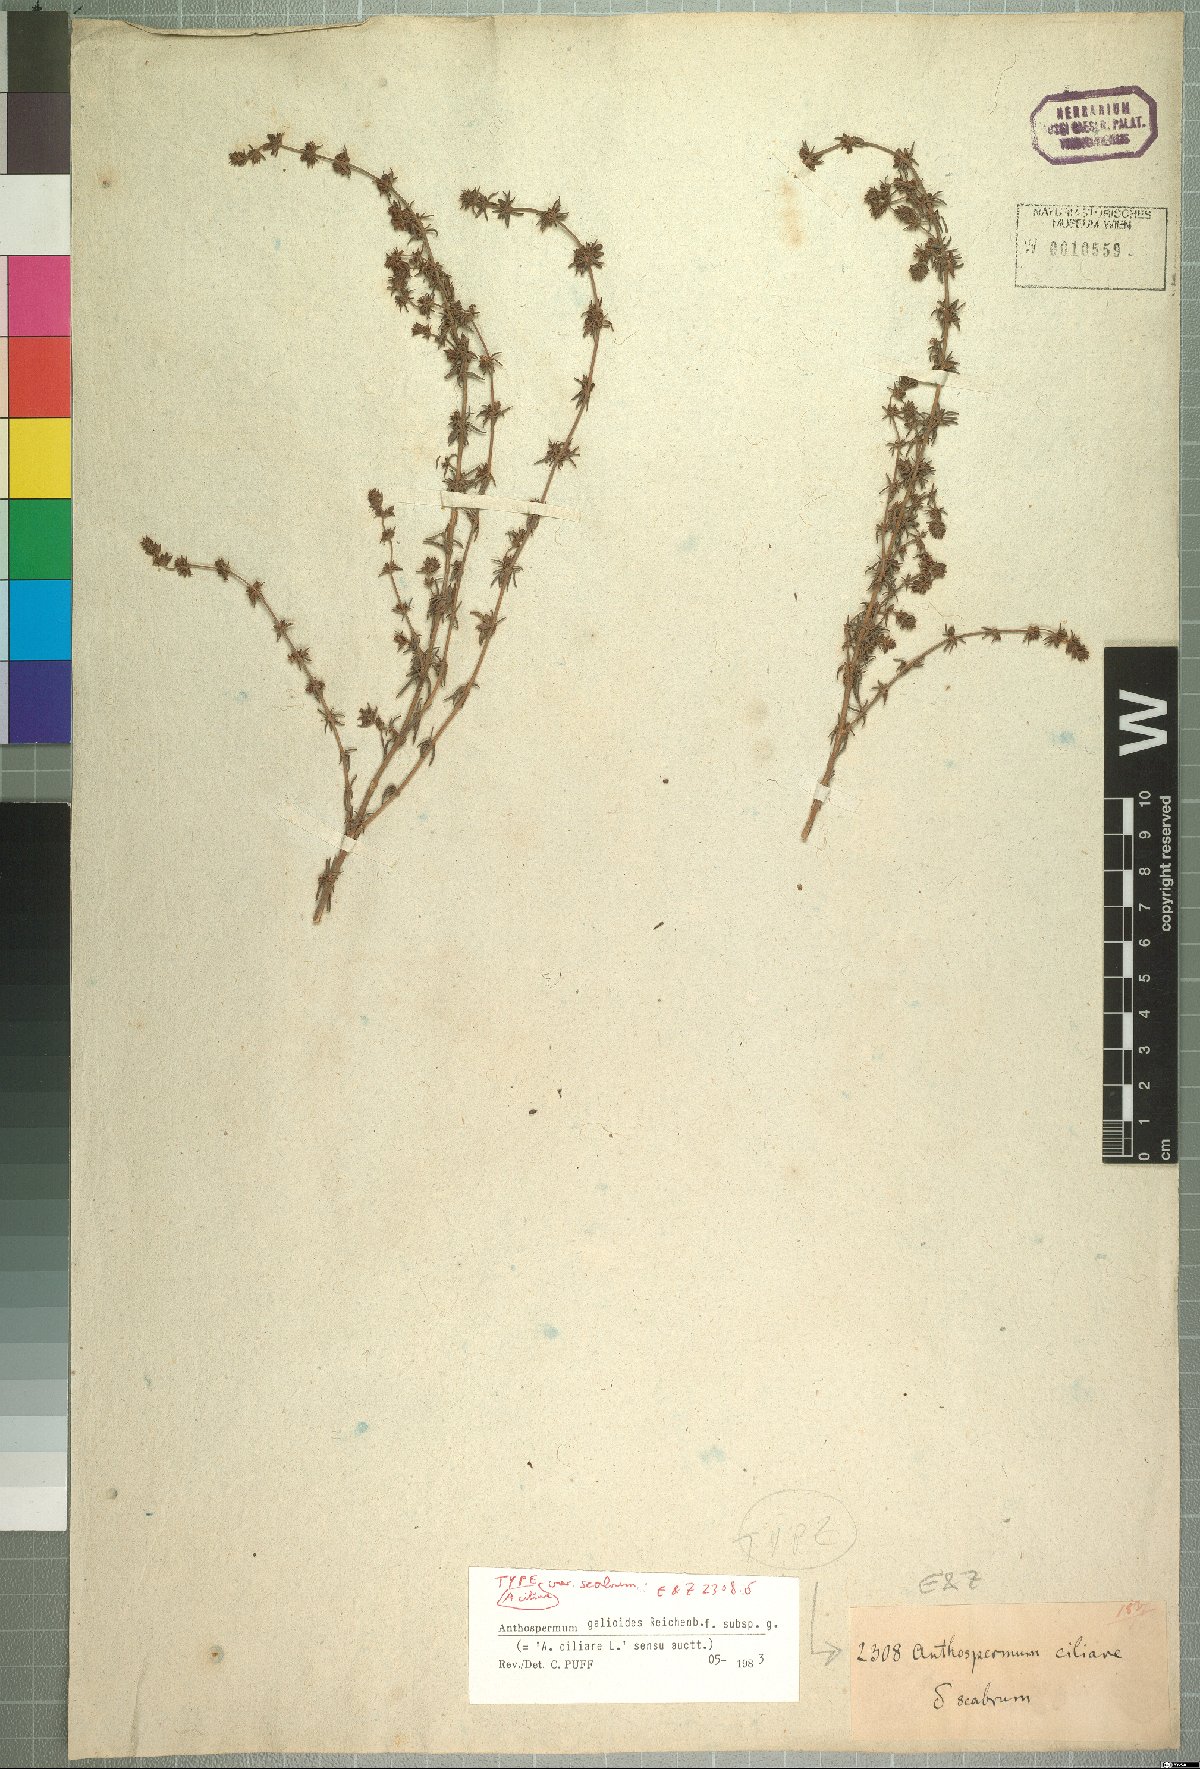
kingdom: Plantae
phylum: Tracheophyta
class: Magnoliopsida
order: Gentianales
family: Rubiaceae
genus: Anthospermum
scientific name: Anthospermum galioides
